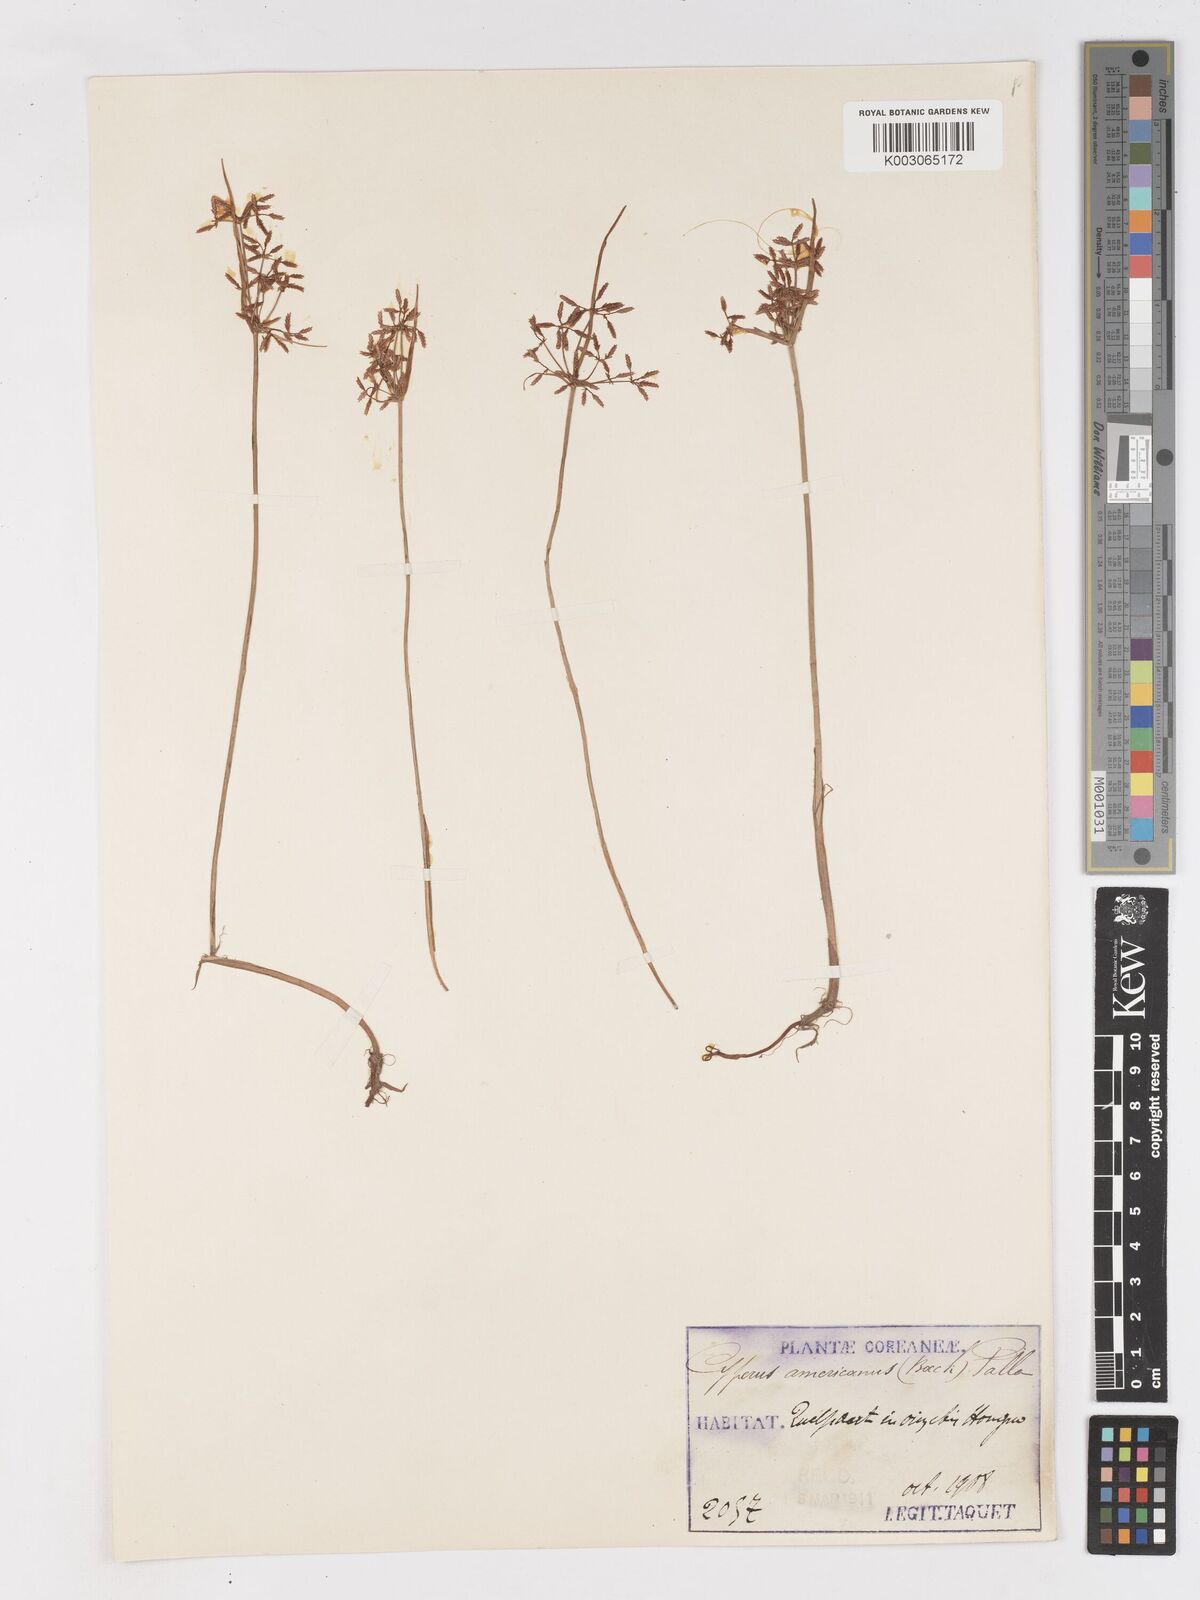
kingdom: Plantae
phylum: Tracheophyta
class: Liliopsida
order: Poales
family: Cyperaceae
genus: Cyperus
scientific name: Cyperus haspan
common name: Haspan flatsedge
